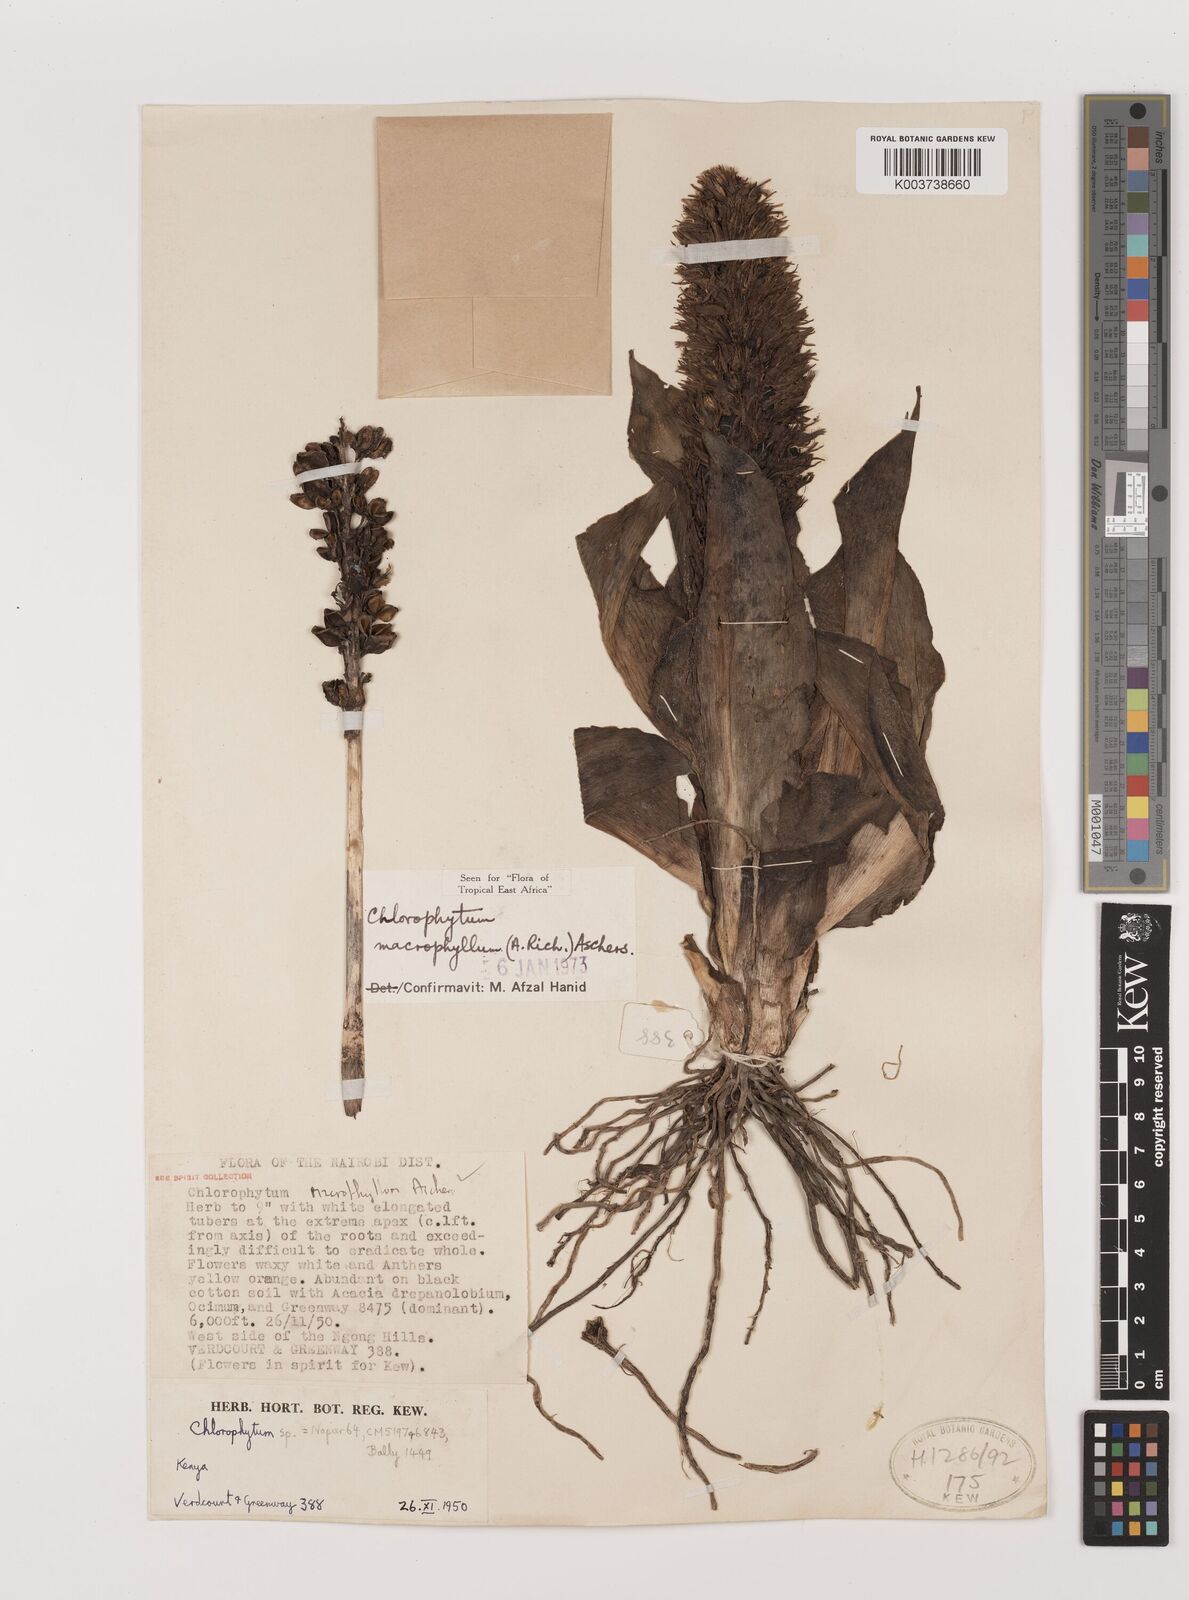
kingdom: Plantae
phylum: Tracheophyta
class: Liliopsida
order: Asparagales
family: Asparagaceae
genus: Chlorophytum
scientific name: Chlorophytum macrophyllum
